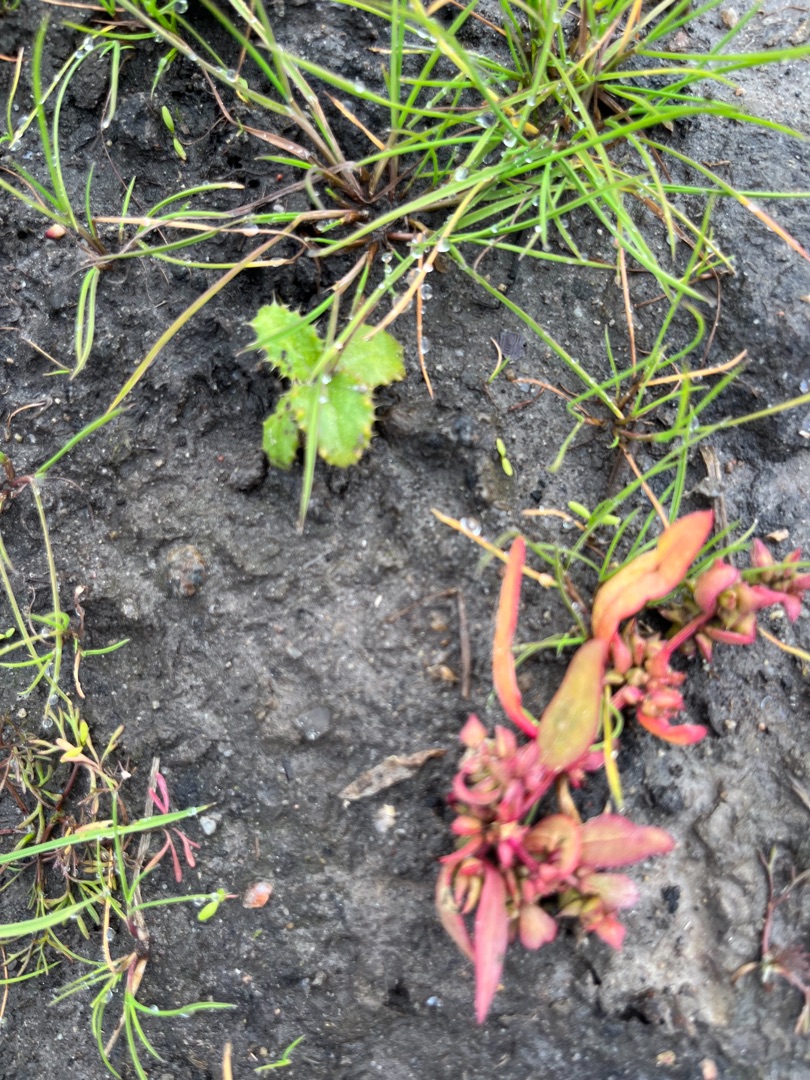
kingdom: Plantae
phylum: Tracheophyta
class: Magnoliopsida
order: Caryophyllales
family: Amaranthaceae
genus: Atriplex
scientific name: Atriplex
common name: Mældeslægten
